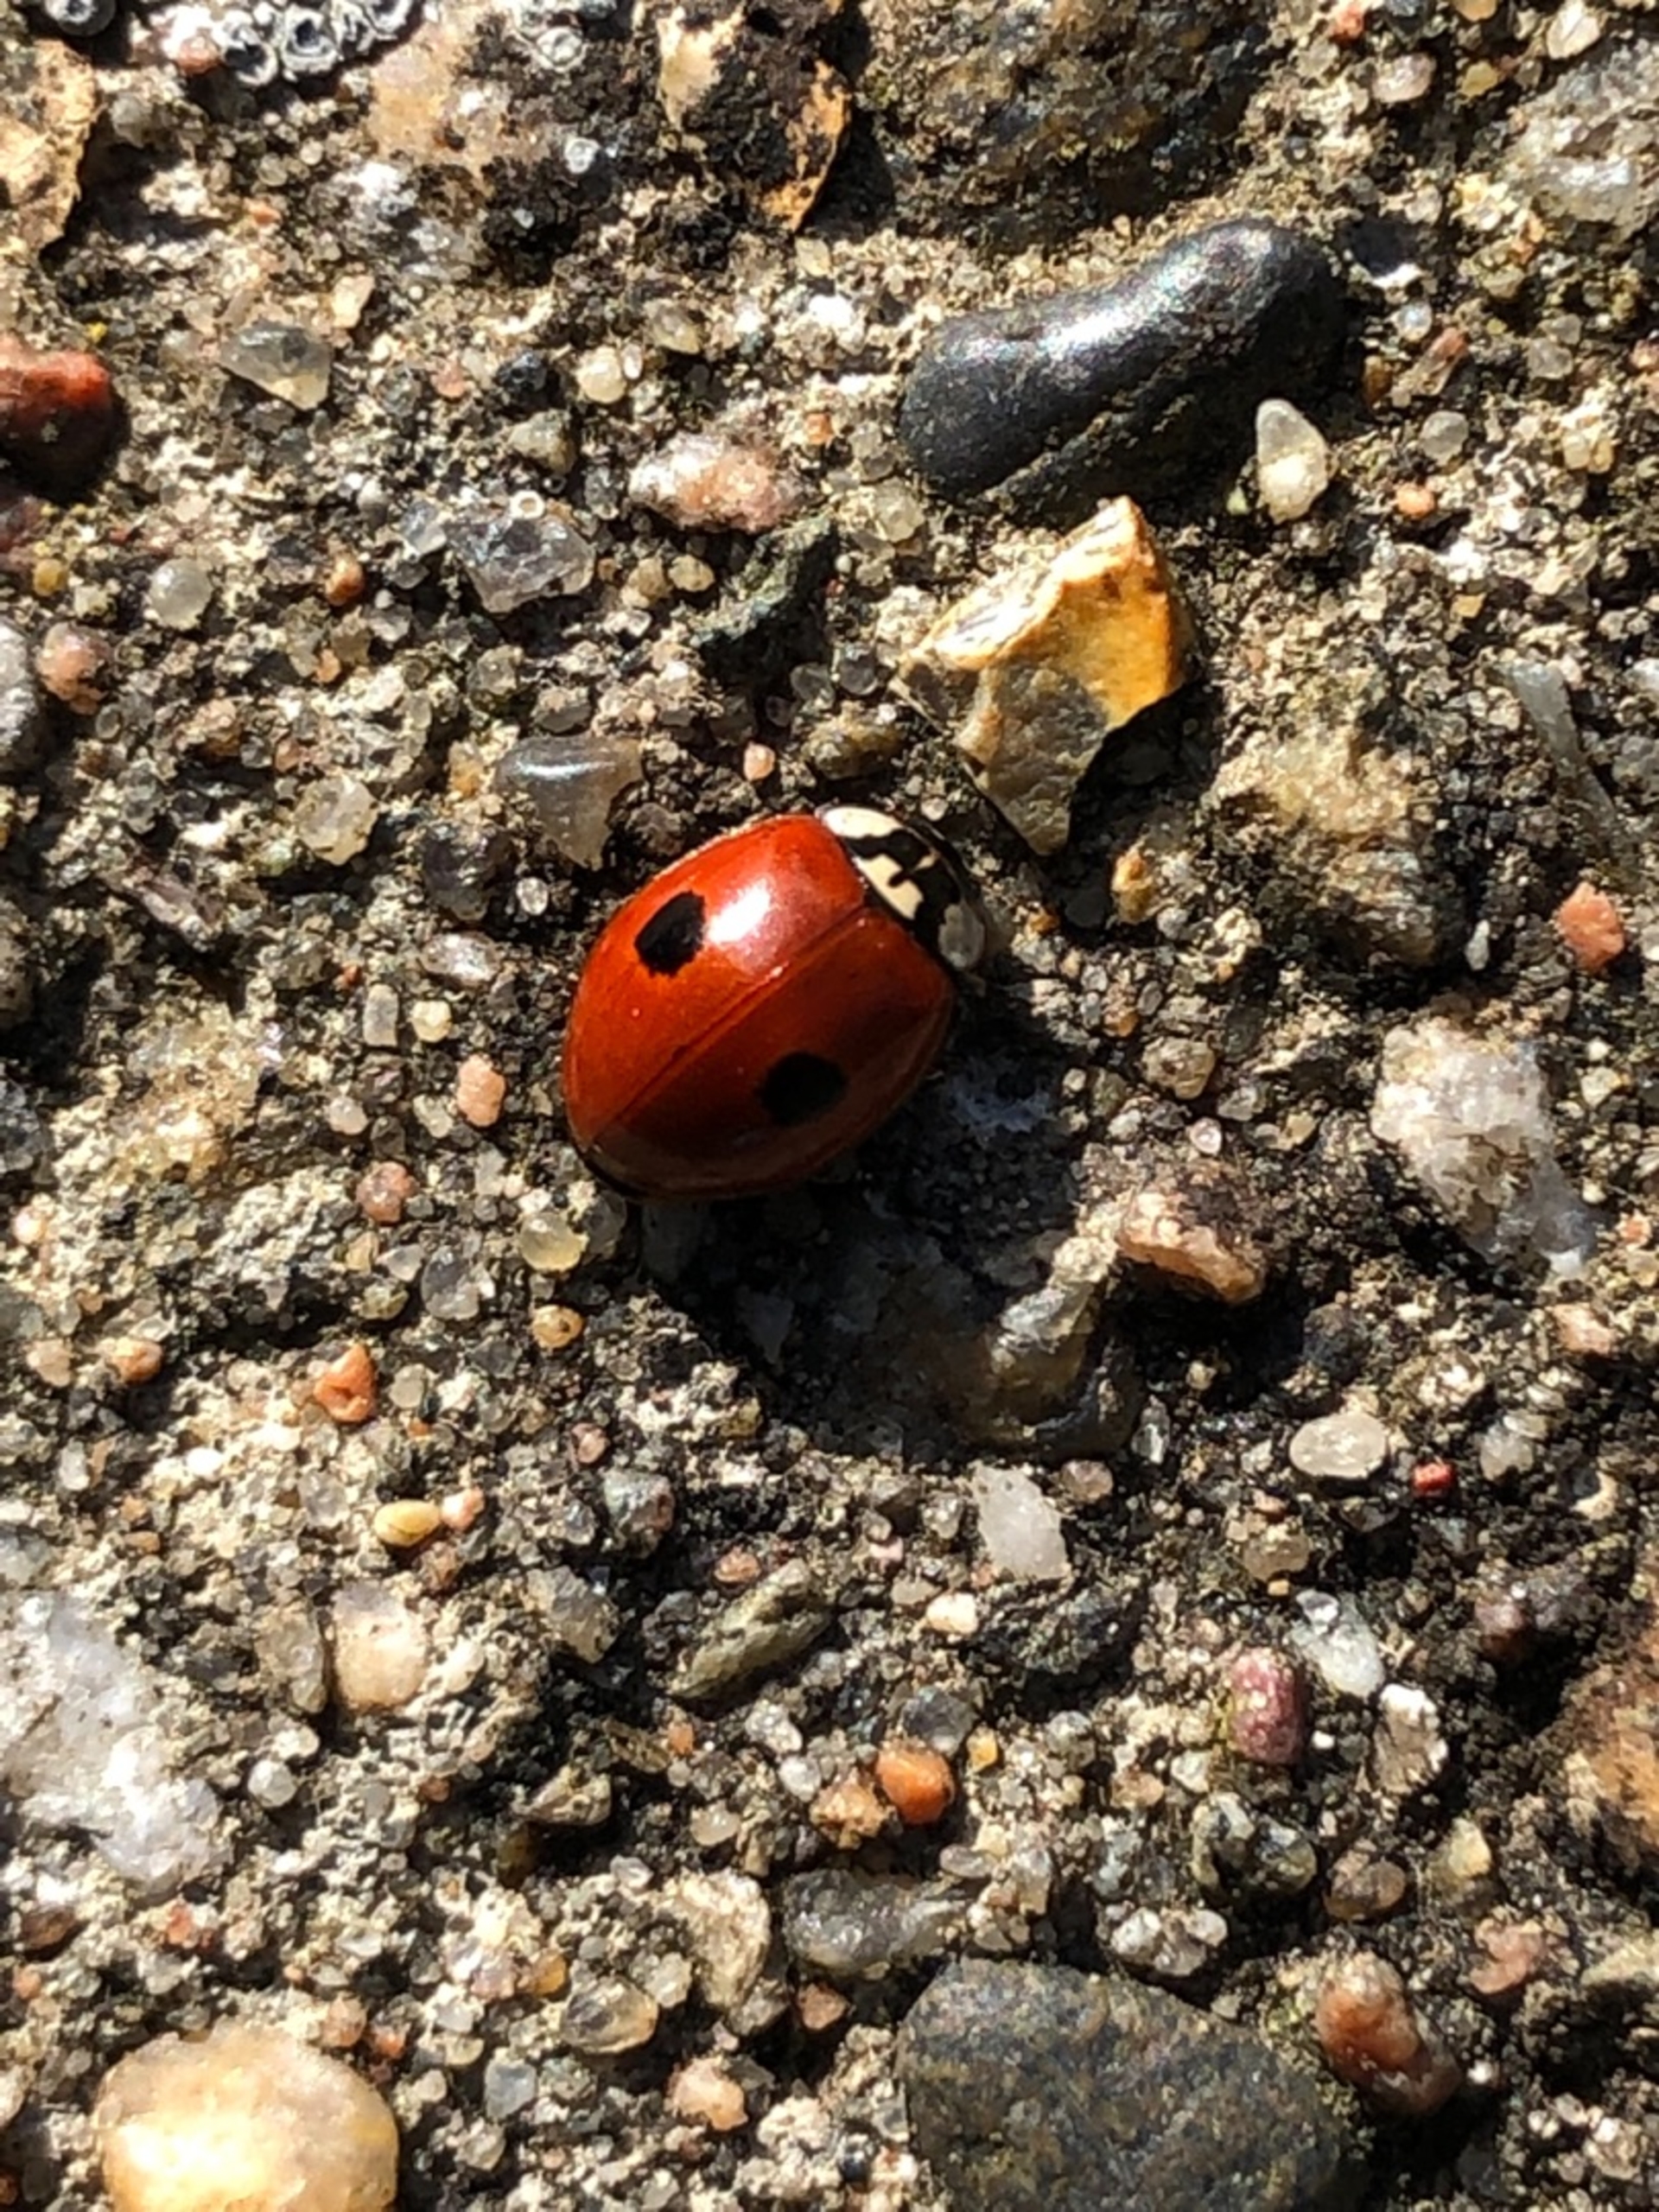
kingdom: Animalia
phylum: Arthropoda
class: Insecta
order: Coleoptera
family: Coccinellidae
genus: Adalia
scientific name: Adalia bipunctata
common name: Toplettet mariehøne
